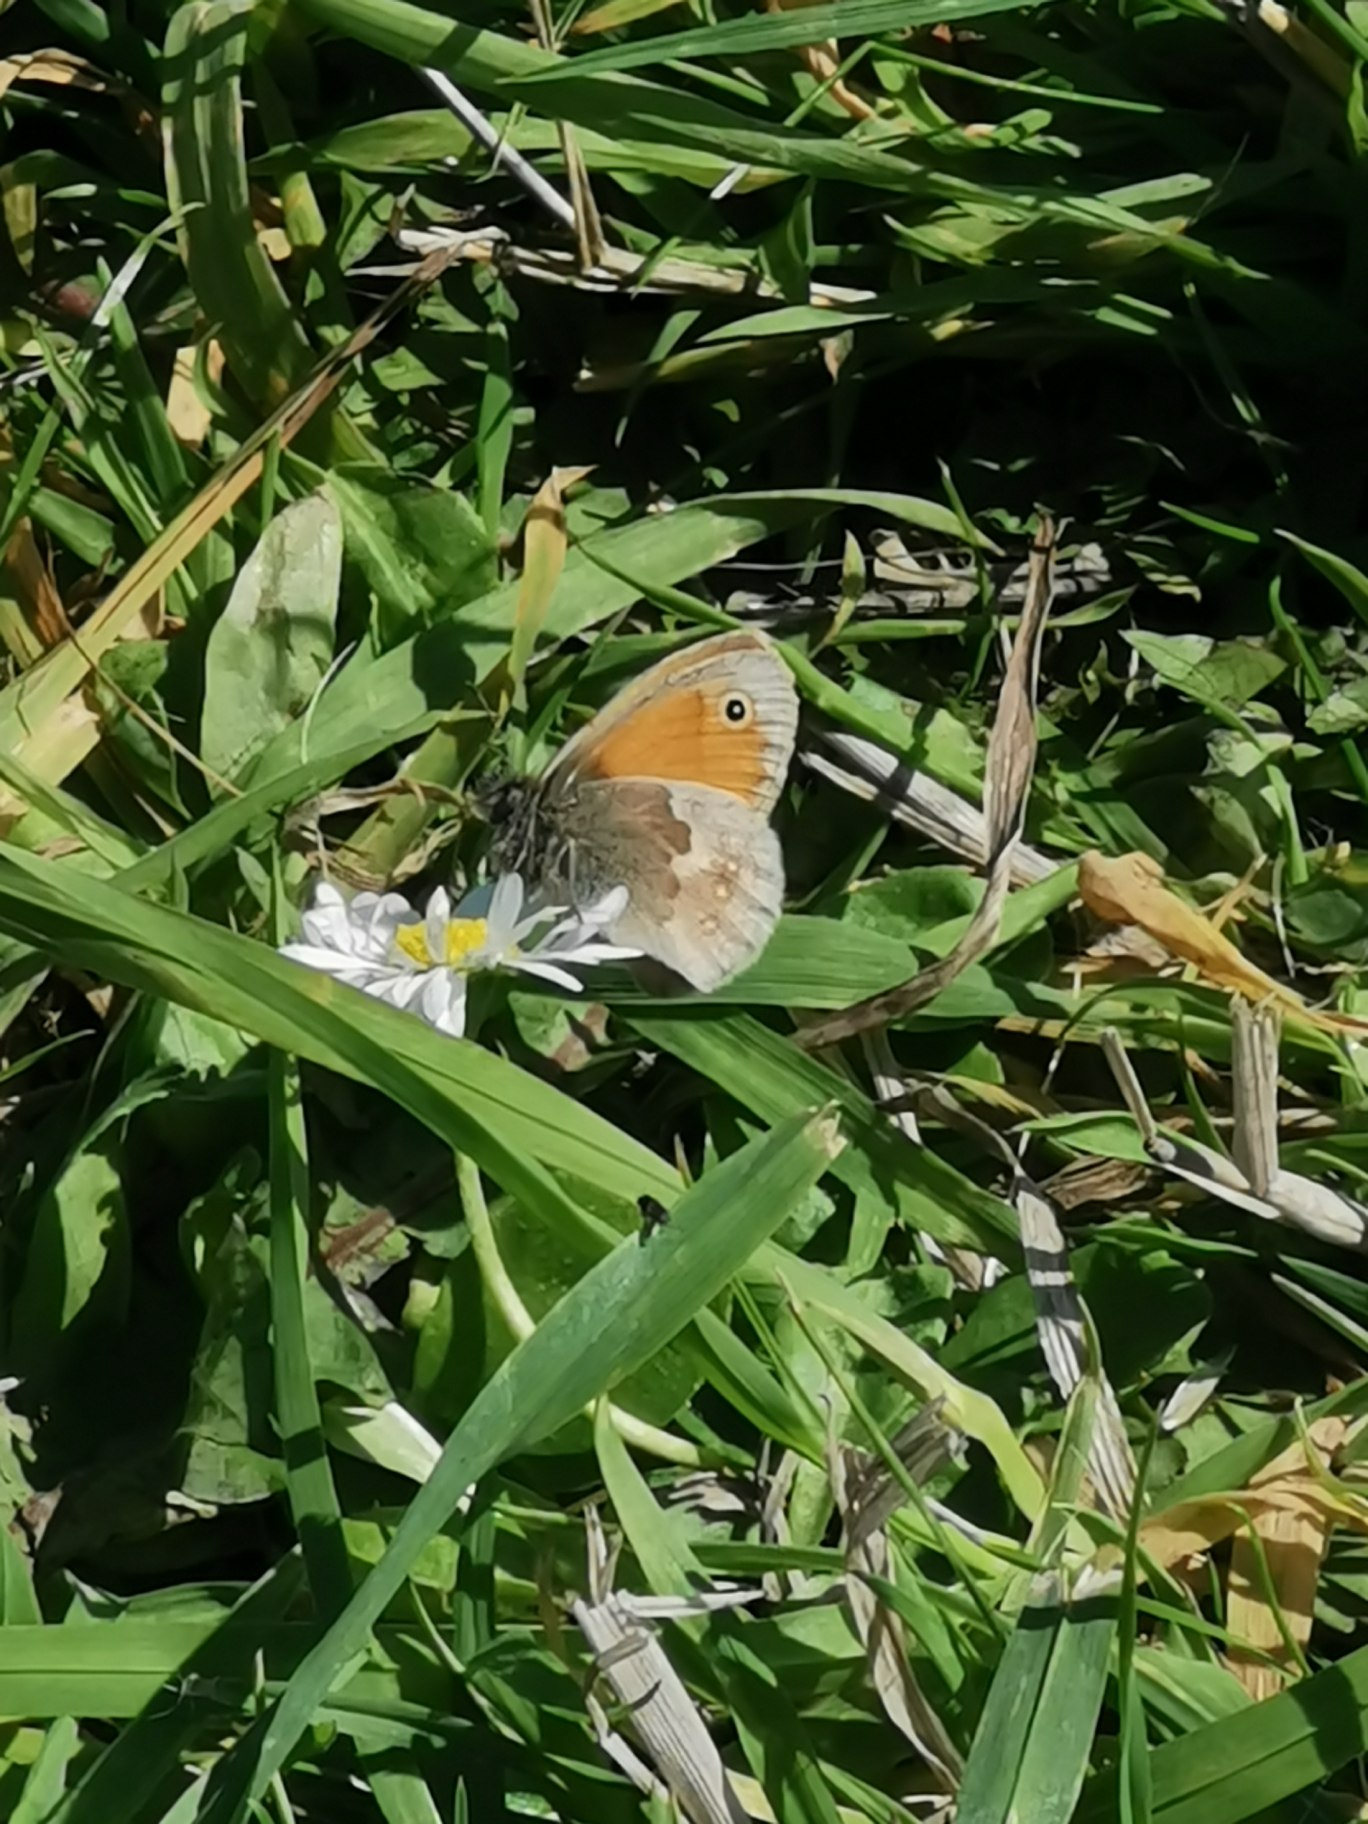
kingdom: Animalia
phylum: Arthropoda
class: Insecta
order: Lepidoptera
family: Nymphalidae
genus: Coenonympha
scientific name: Coenonympha pamphilus
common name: Okkergul randøje
